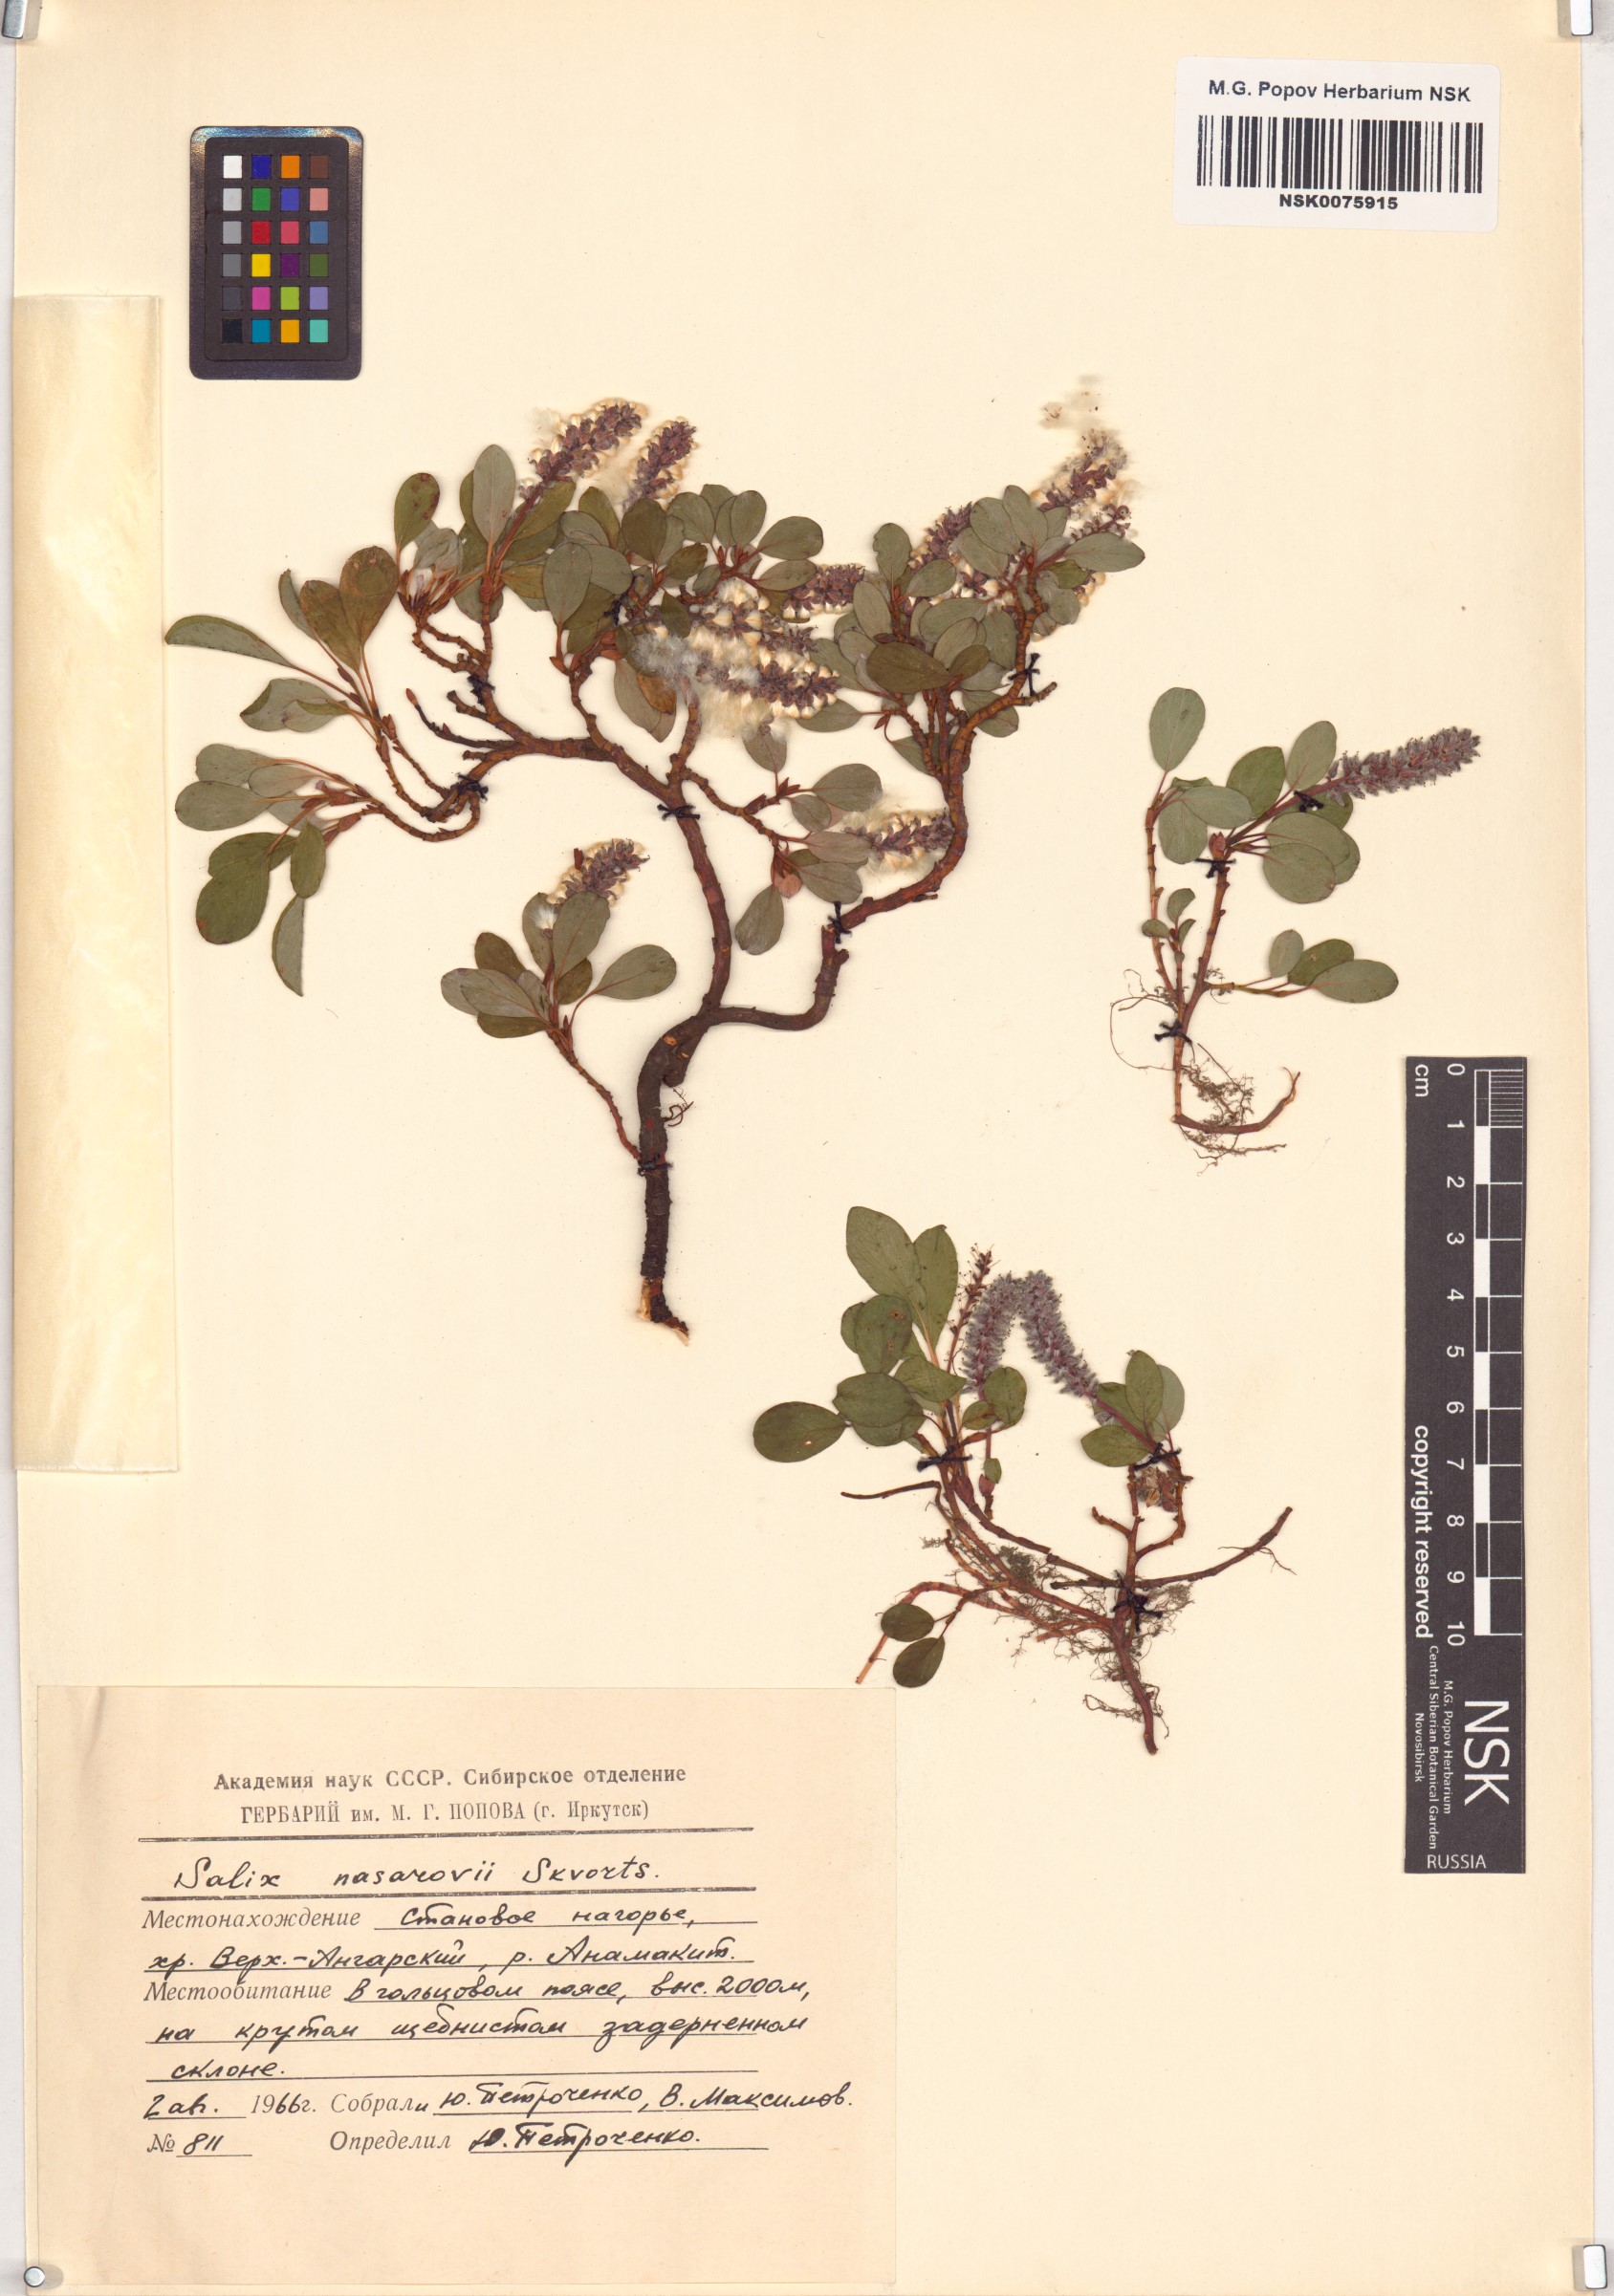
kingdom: Plantae
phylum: Tracheophyta
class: Magnoliopsida
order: Malpighiales
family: Salicaceae
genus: Salix
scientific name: Salix nasarovii
